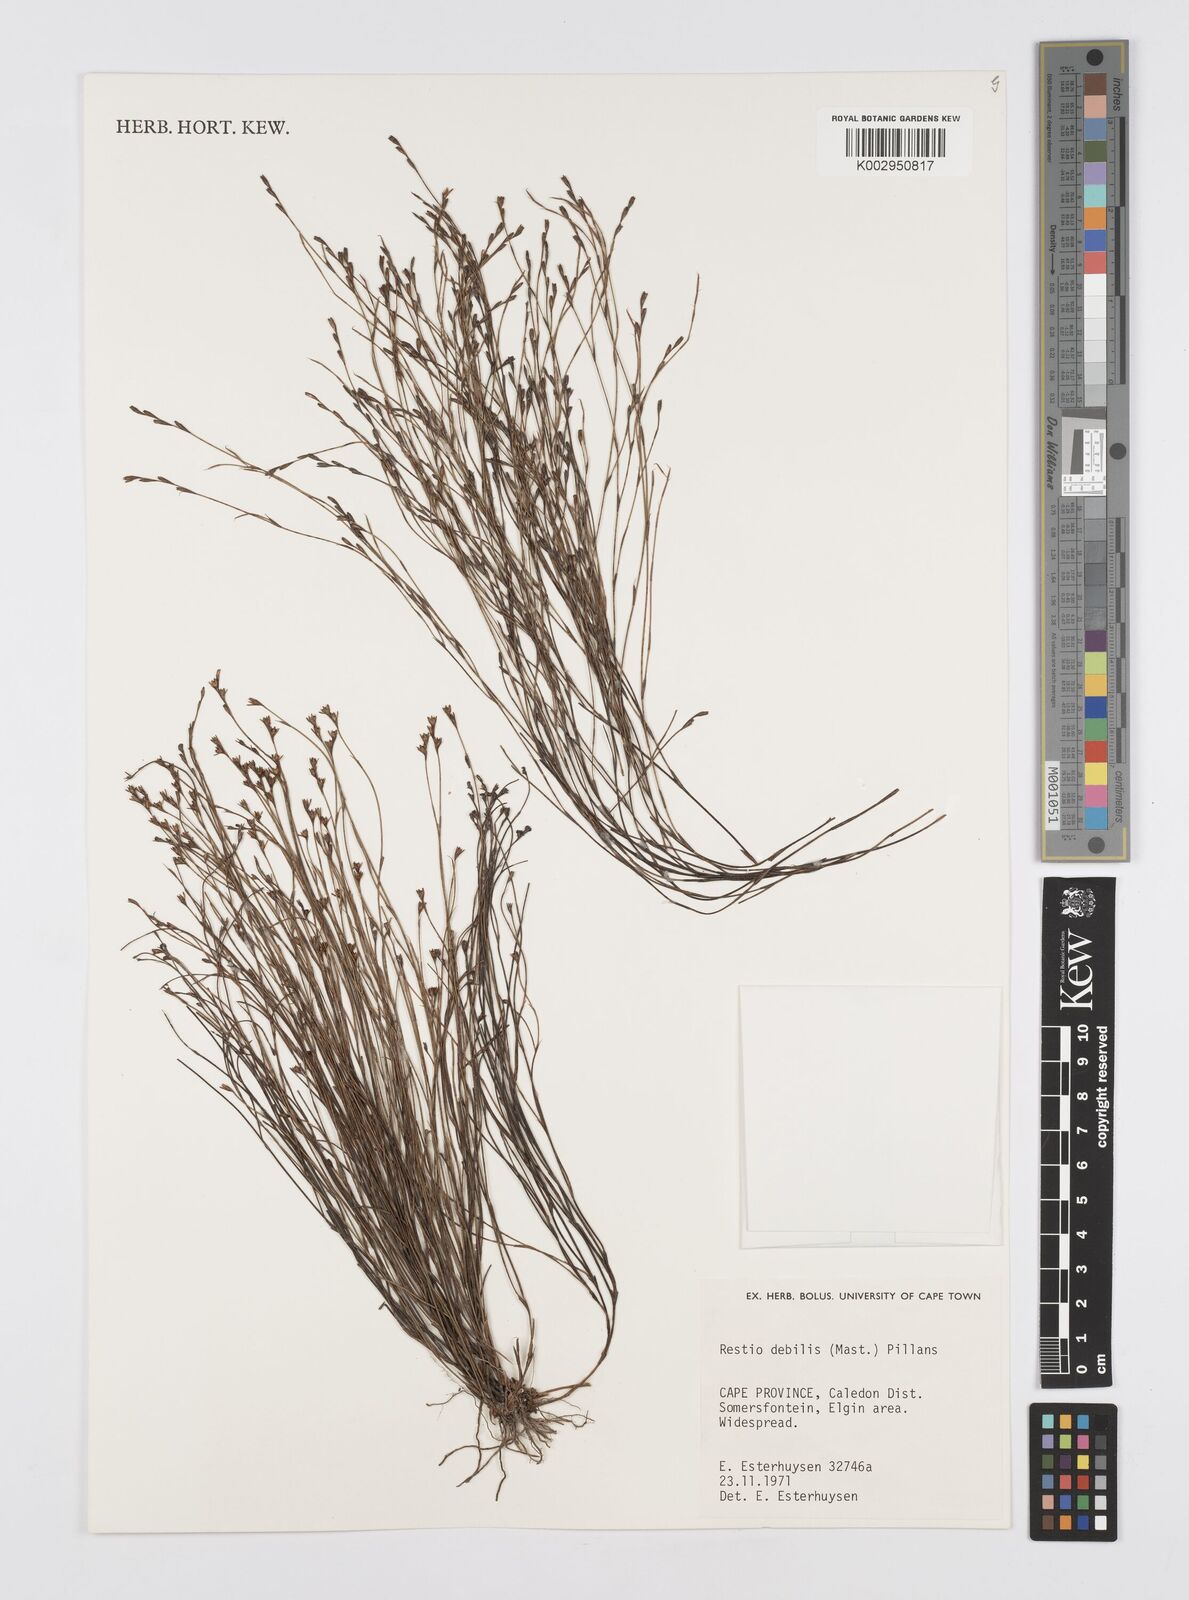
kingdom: Plantae
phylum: Tracheophyta
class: Liliopsida
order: Poales
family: Restionaceae
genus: Restio
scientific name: Restio debilis
